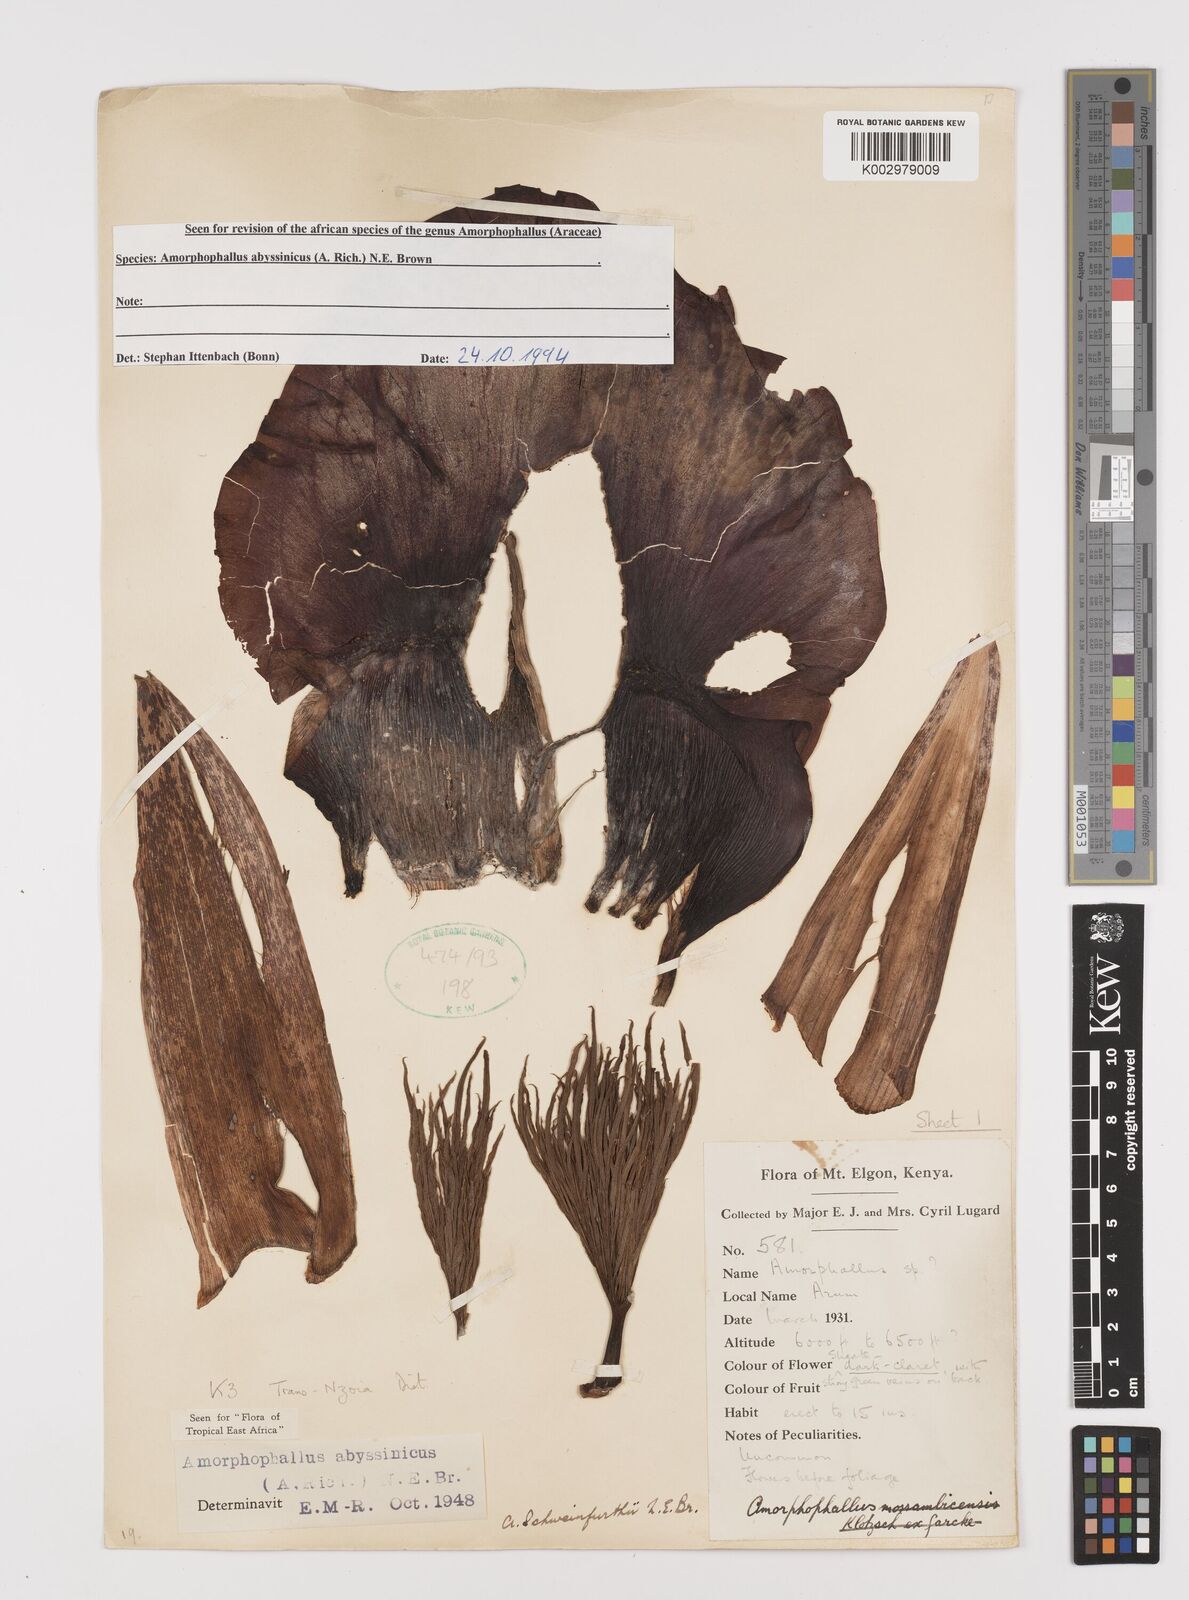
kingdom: Plantae
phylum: Tracheophyta
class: Liliopsida
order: Alismatales
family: Araceae
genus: Amorphophallus
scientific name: Amorphophallus abyssinicus
